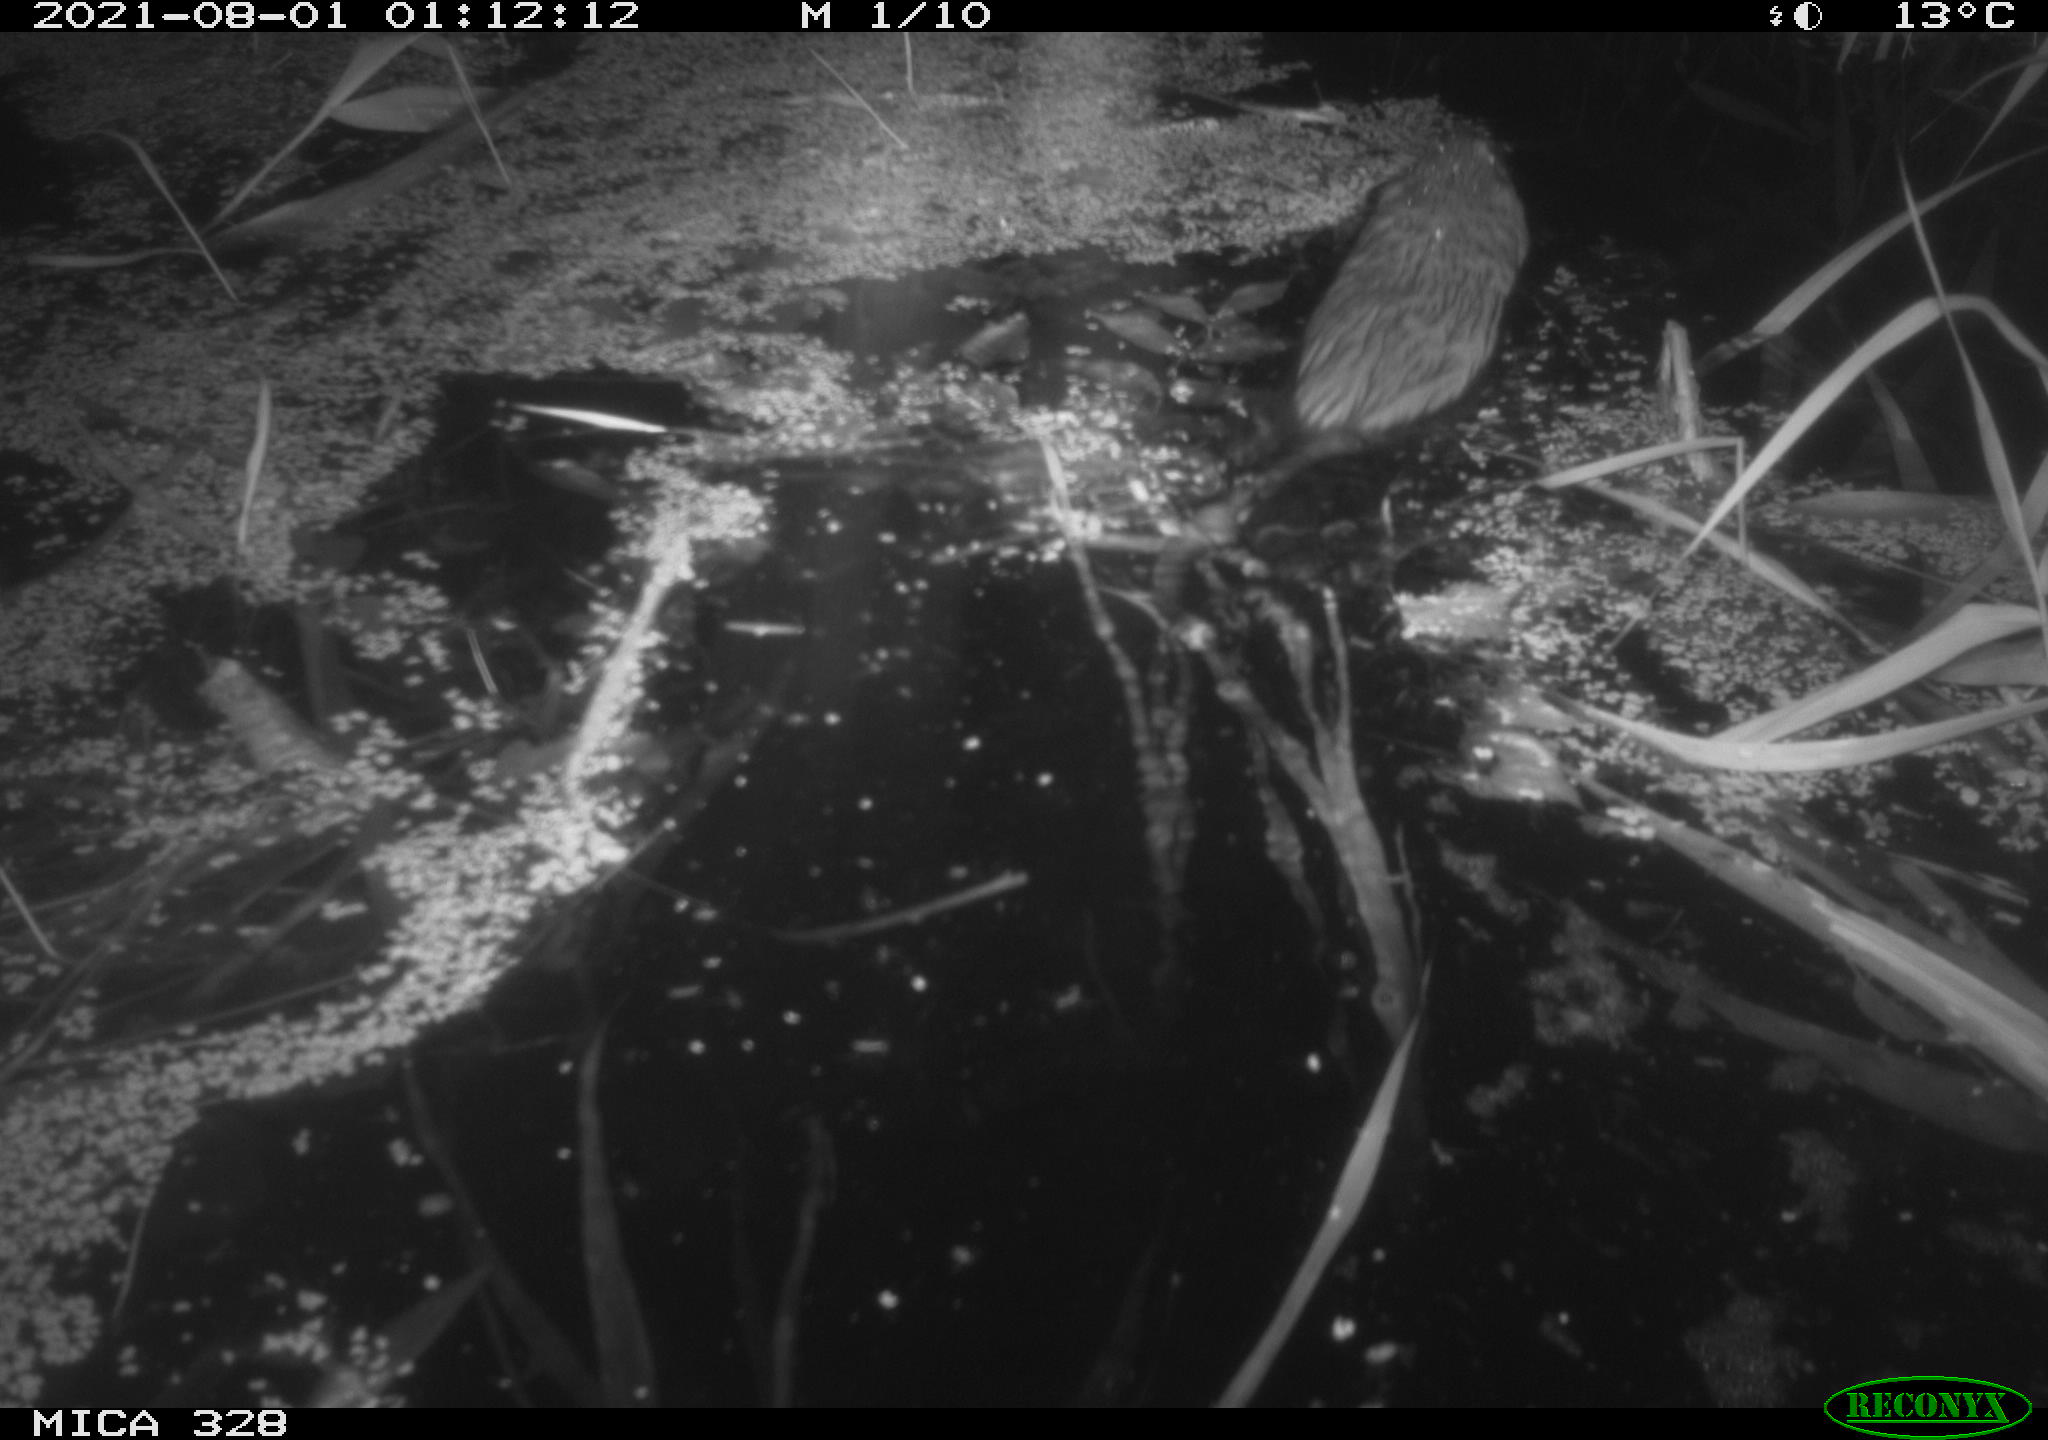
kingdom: Animalia
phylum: Chordata
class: Mammalia
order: Rodentia
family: Cricetidae
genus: Ondatra
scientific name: Ondatra zibethicus
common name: Muskrat
